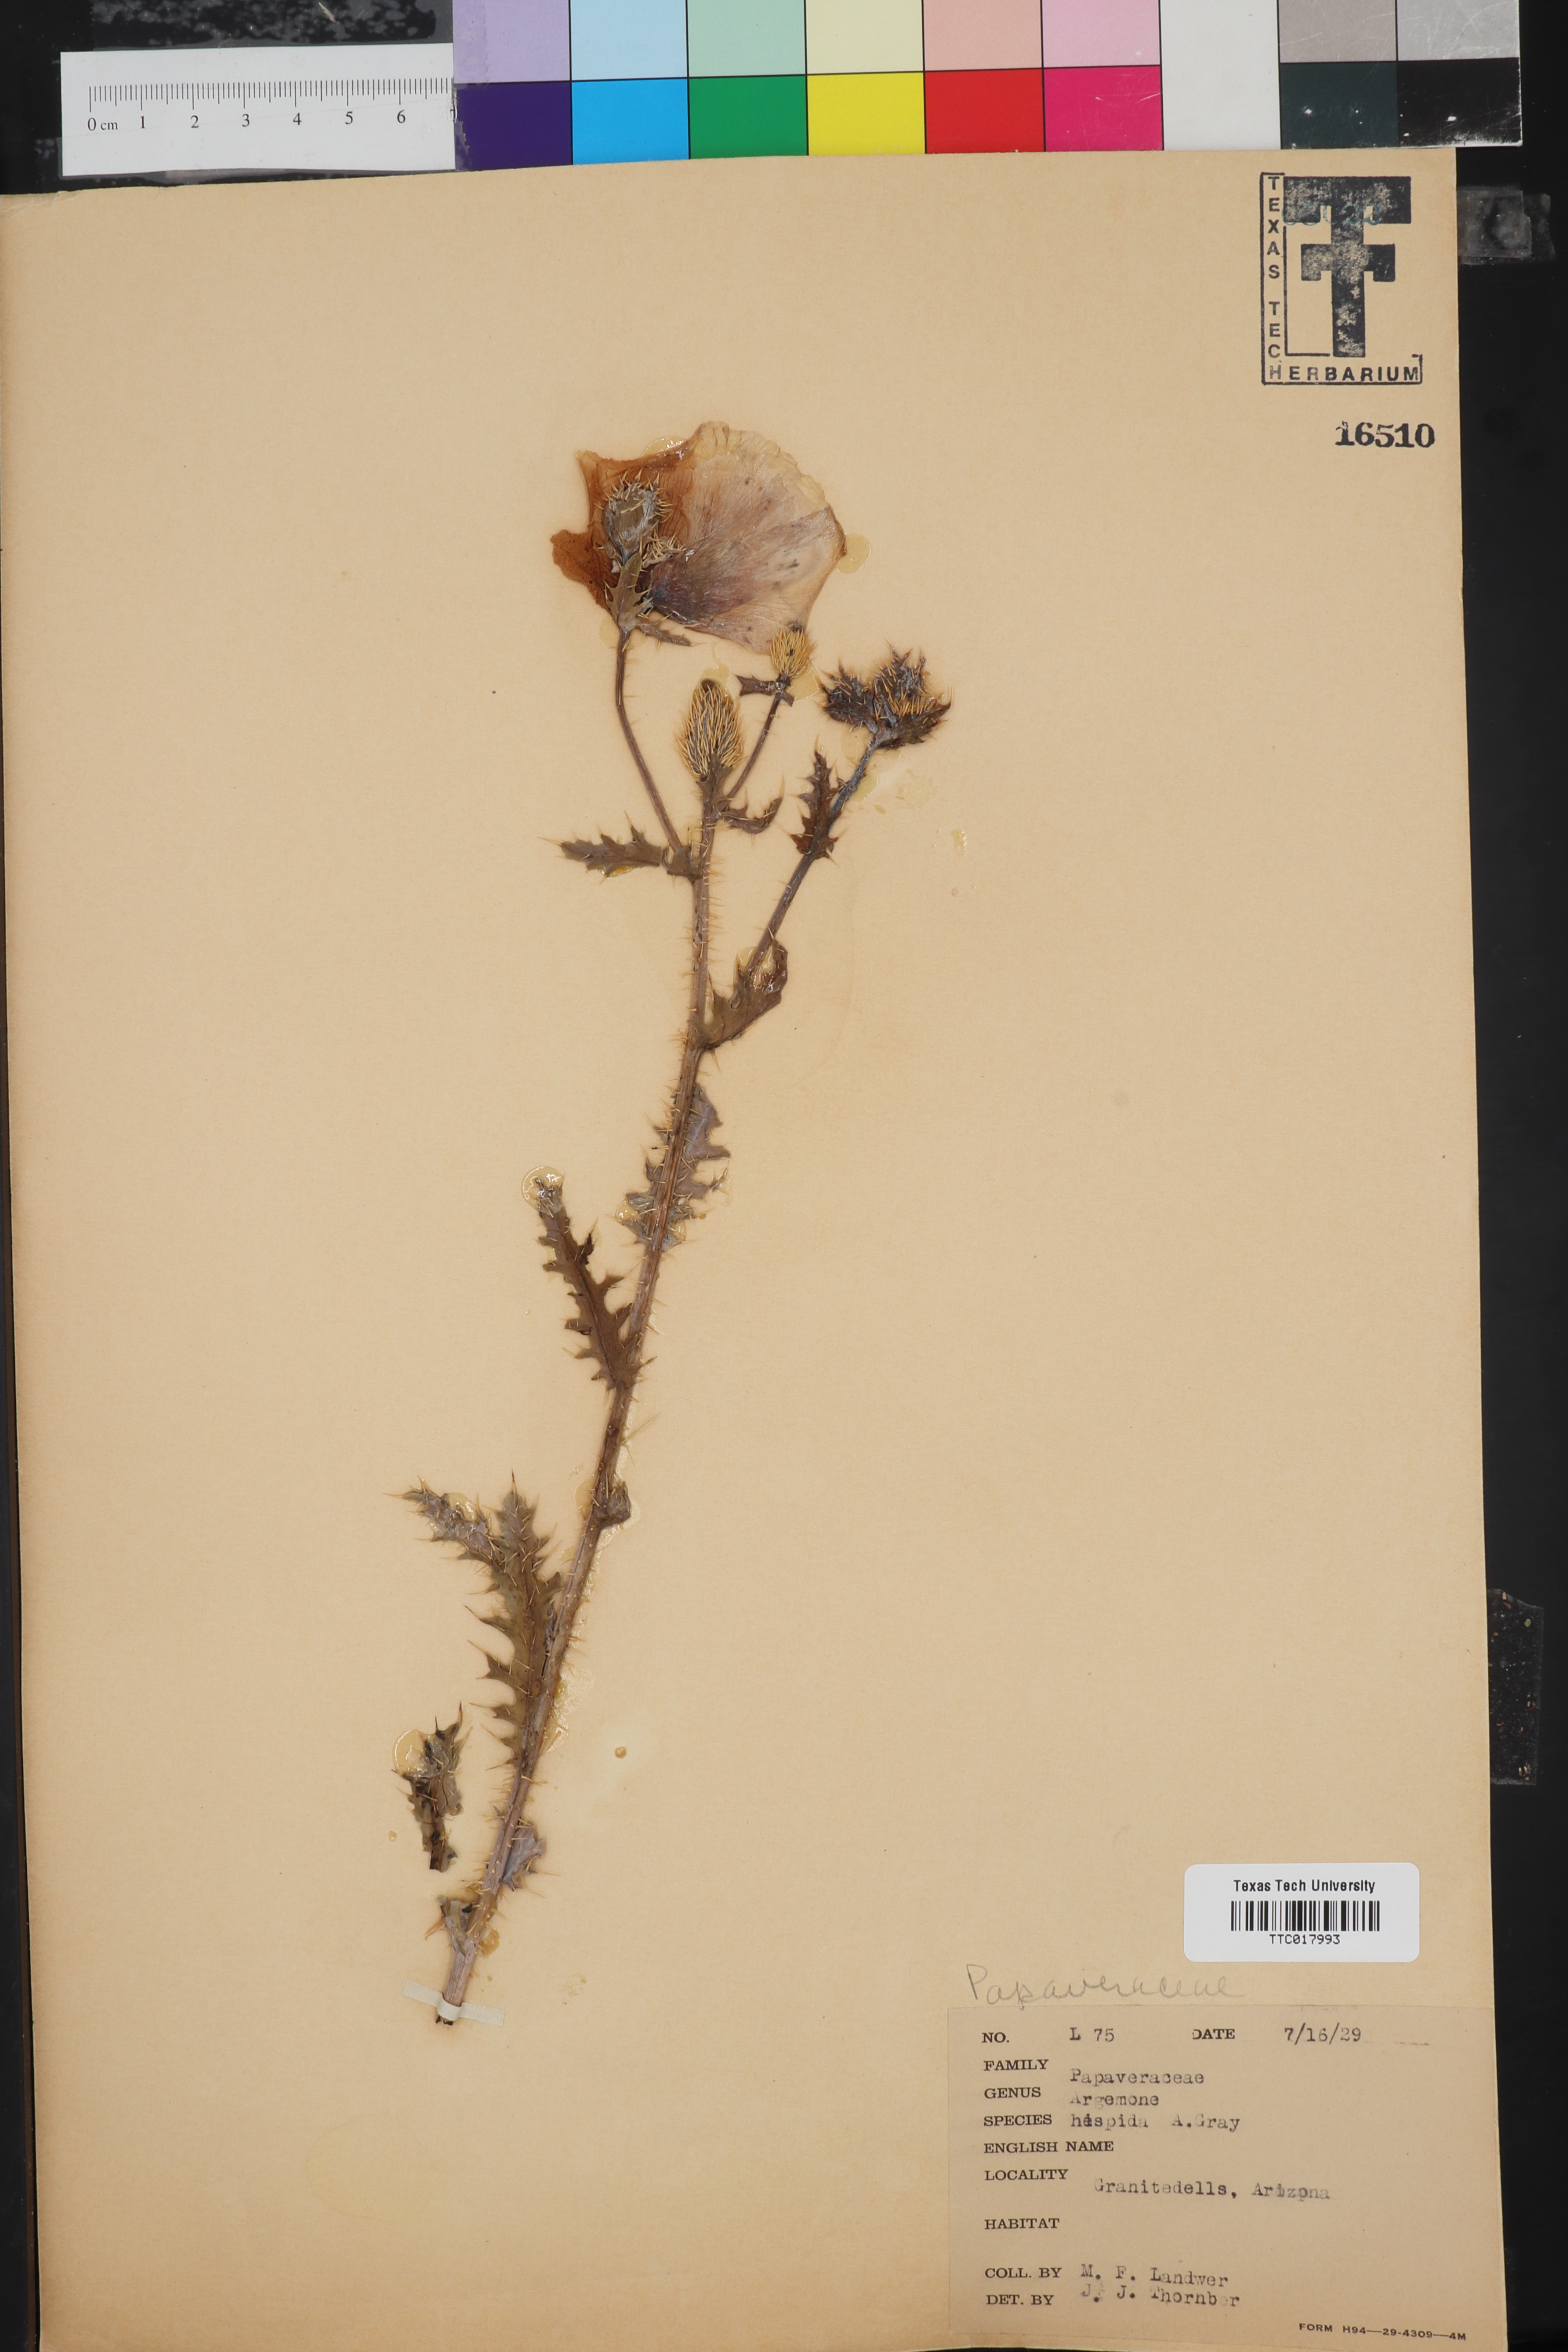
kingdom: Plantae
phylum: Tracheophyta
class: Magnoliopsida
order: Ranunculales
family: Papaveraceae
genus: Argemone
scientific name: Argemone hispida
